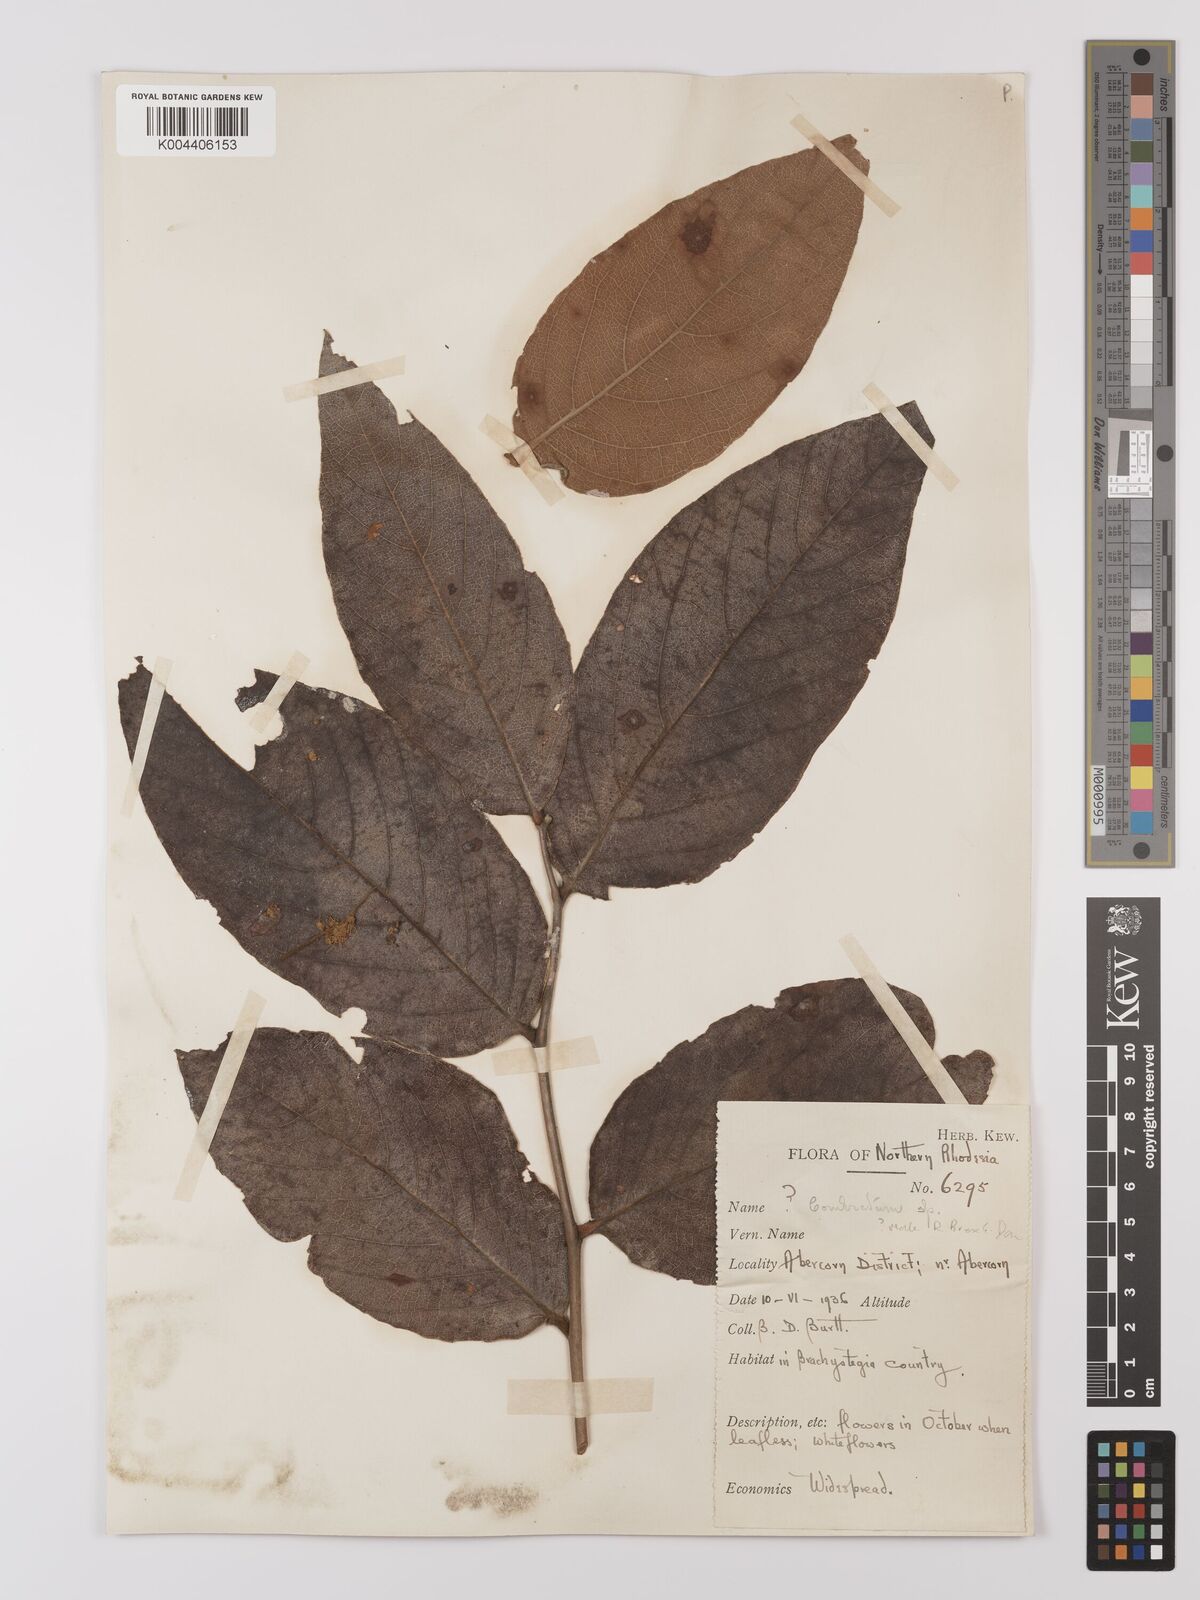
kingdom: Plantae
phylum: Tracheophyta
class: Magnoliopsida
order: Myrtales
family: Combretaceae
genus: Combretum
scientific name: Combretum
